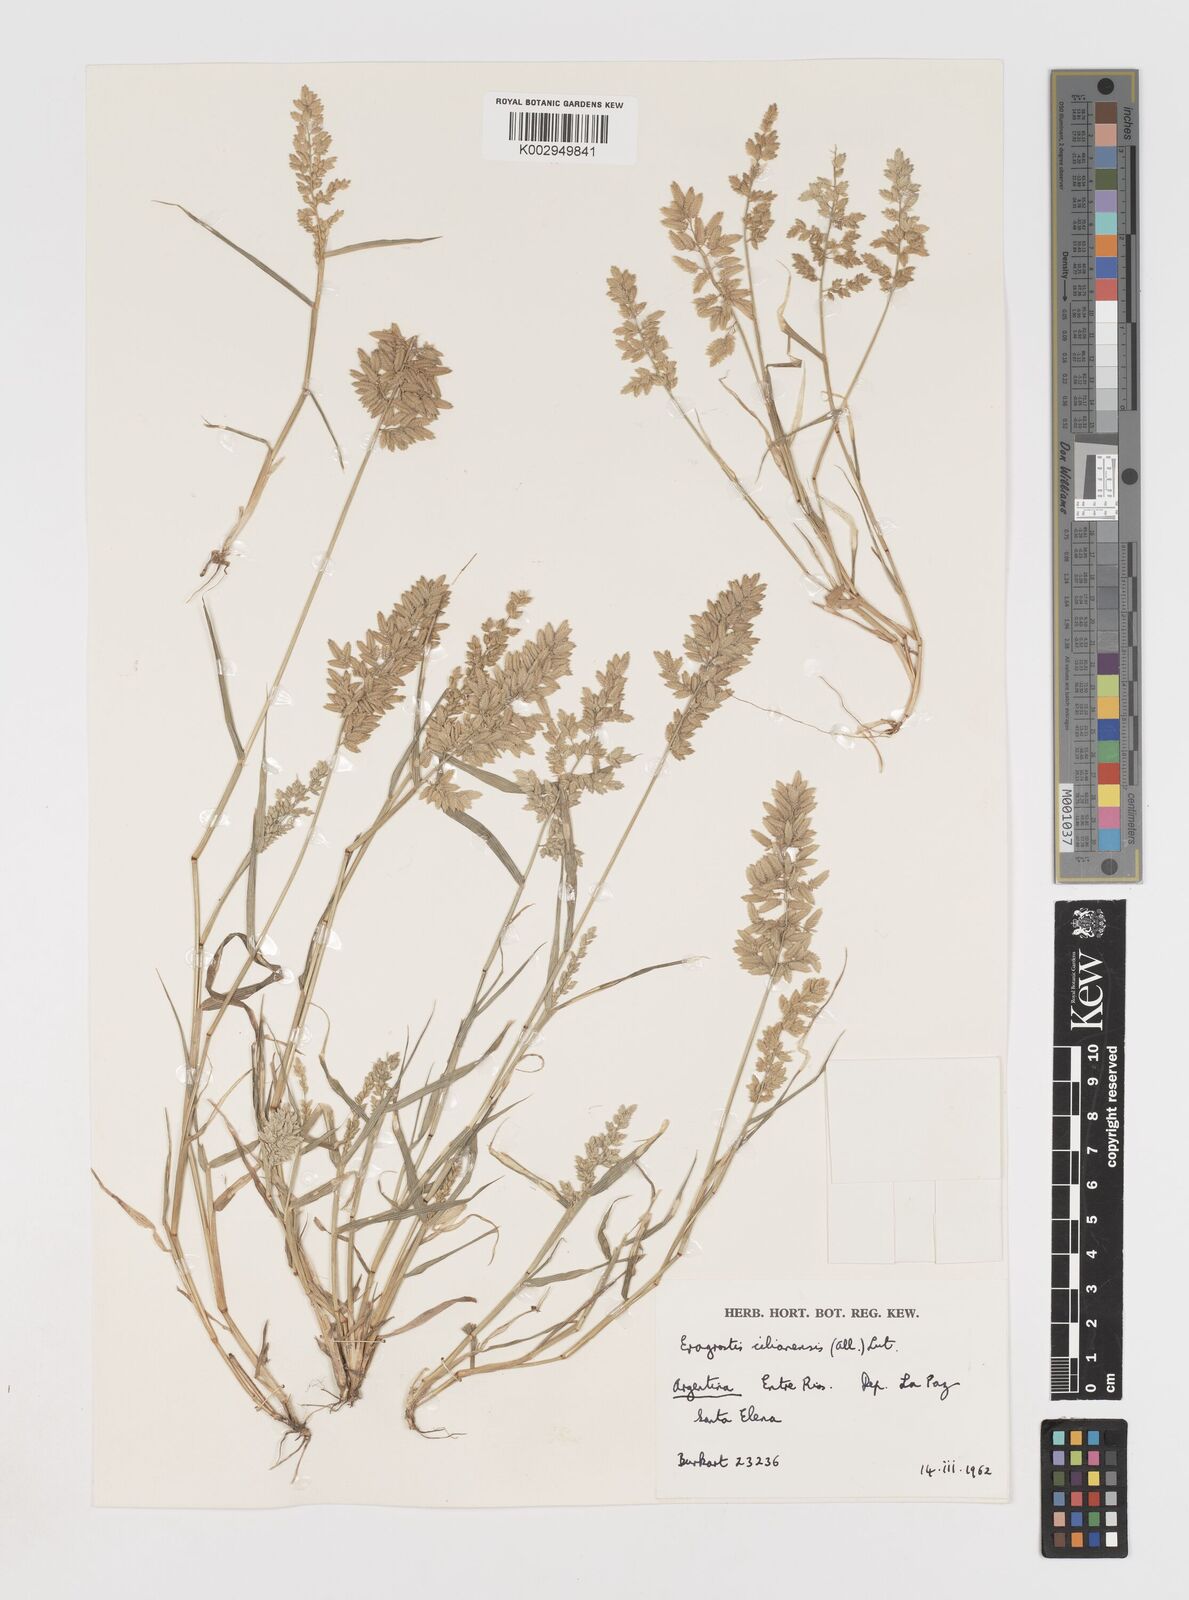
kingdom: Plantae
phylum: Tracheophyta
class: Liliopsida
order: Poales
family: Poaceae
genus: Eragrostis
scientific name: Eragrostis cilianensis
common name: Stinkgrass
